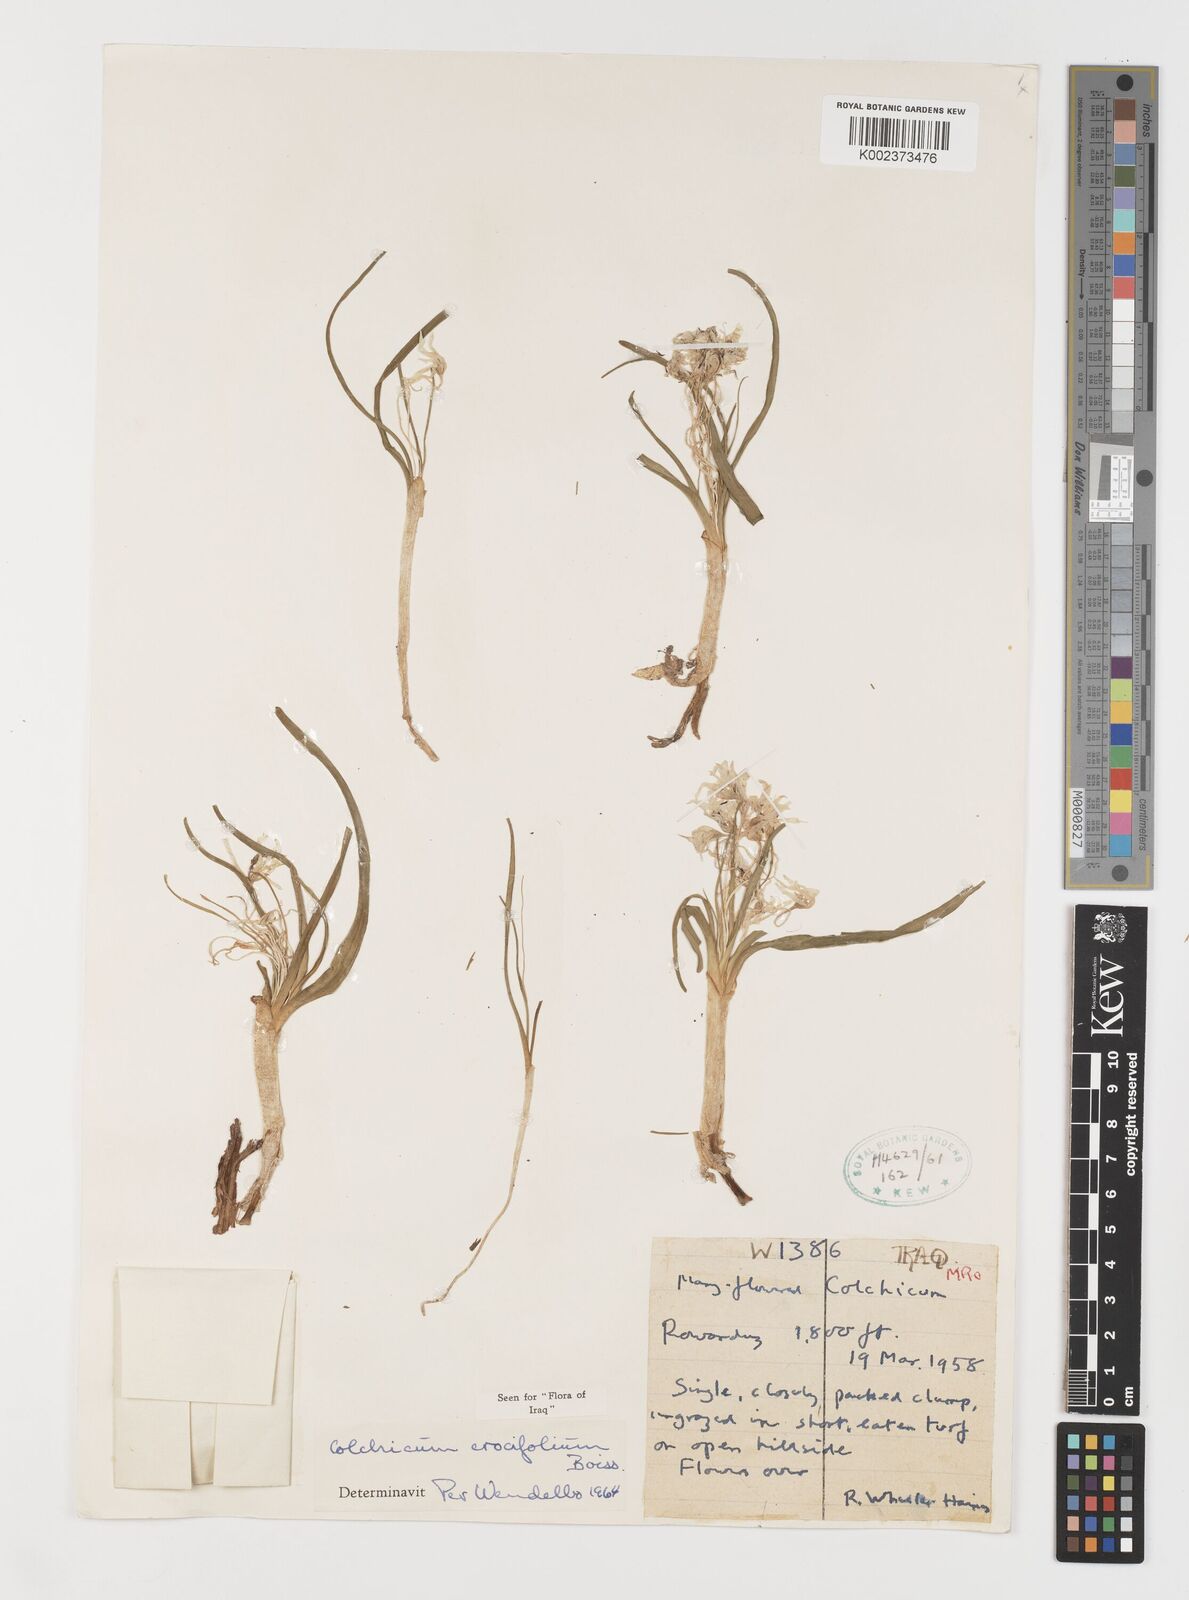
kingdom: Plantae
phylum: Tracheophyta
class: Liliopsida
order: Liliales
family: Colchicaceae
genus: Colchicum
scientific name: Colchicum schimperi
